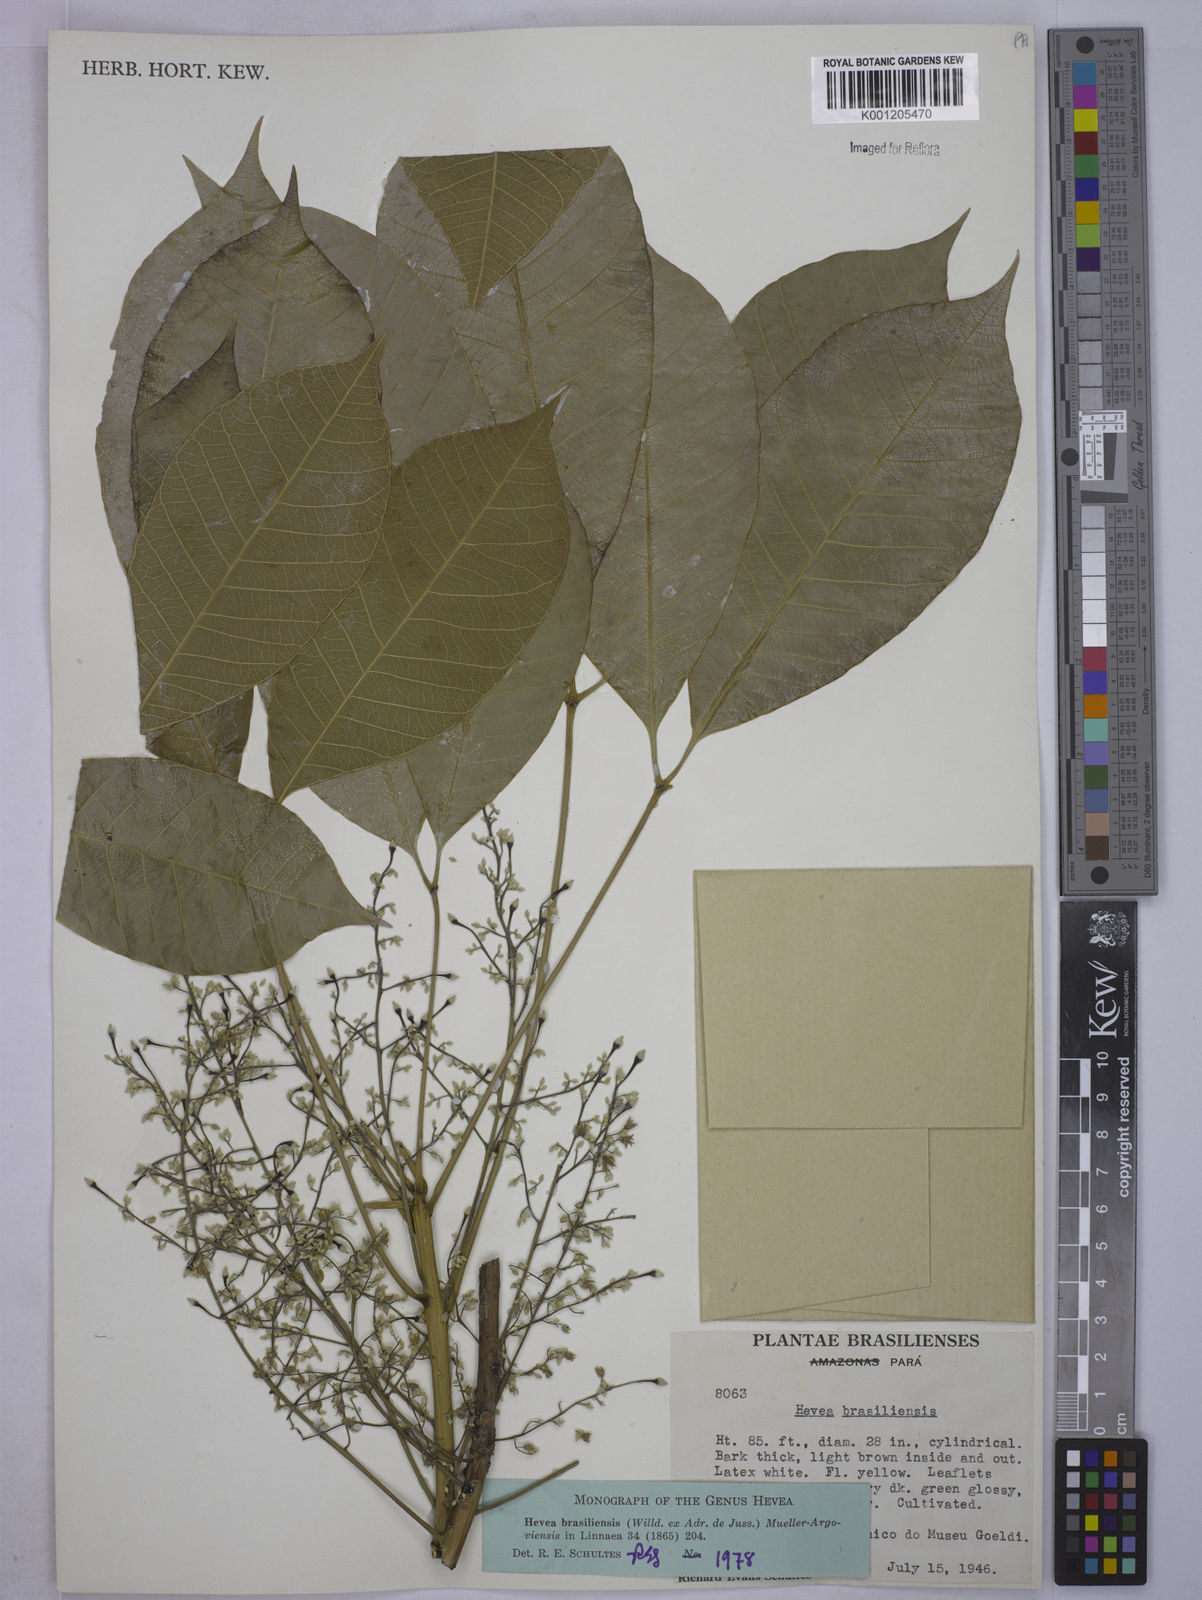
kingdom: Plantae
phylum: Tracheophyta
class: Magnoliopsida
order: Malpighiales
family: Euphorbiaceae
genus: Hevea
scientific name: Hevea
